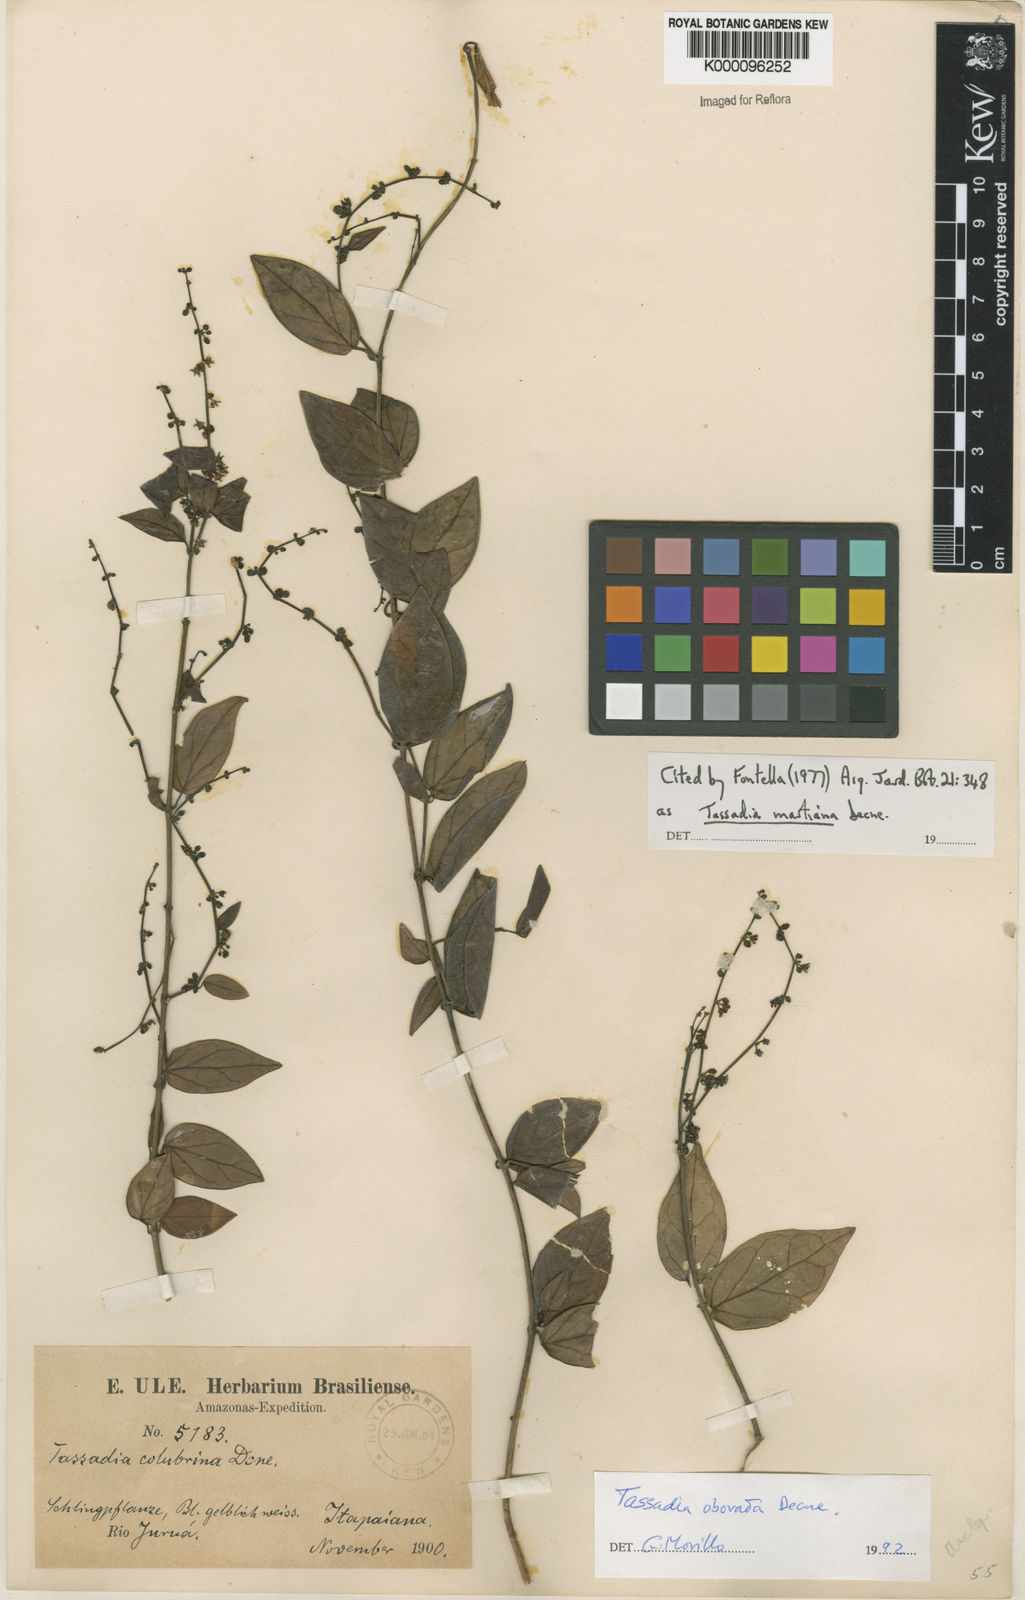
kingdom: Plantae
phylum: Tracheophyta
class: Magnoliopsida
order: Gentianales
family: Apocynaceae
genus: Tassadia
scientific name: Tassadia martiana
